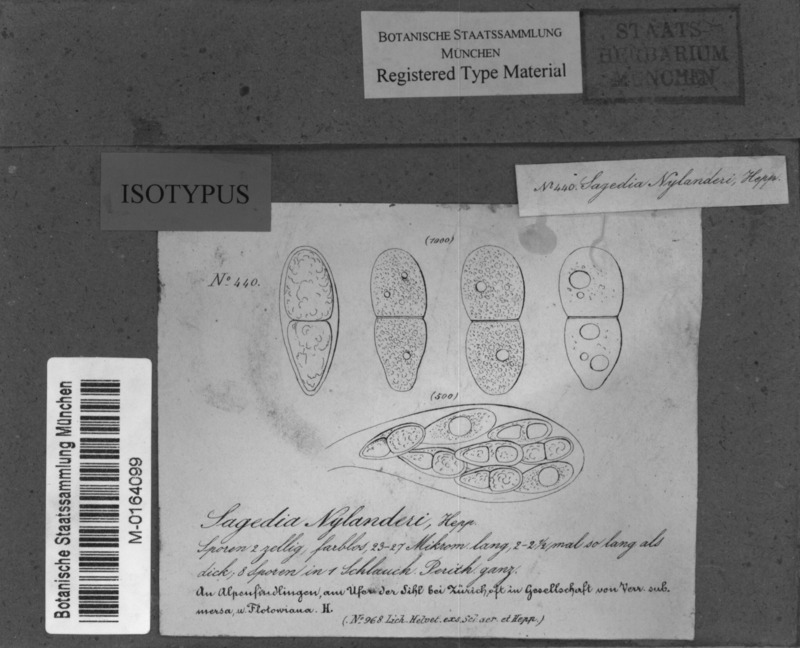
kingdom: Fungi
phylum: Ascomycota
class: Eurotiomycetes
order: Verrucariales
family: Verrucariaceae
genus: Thelidium
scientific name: Thelidium nylanderi
